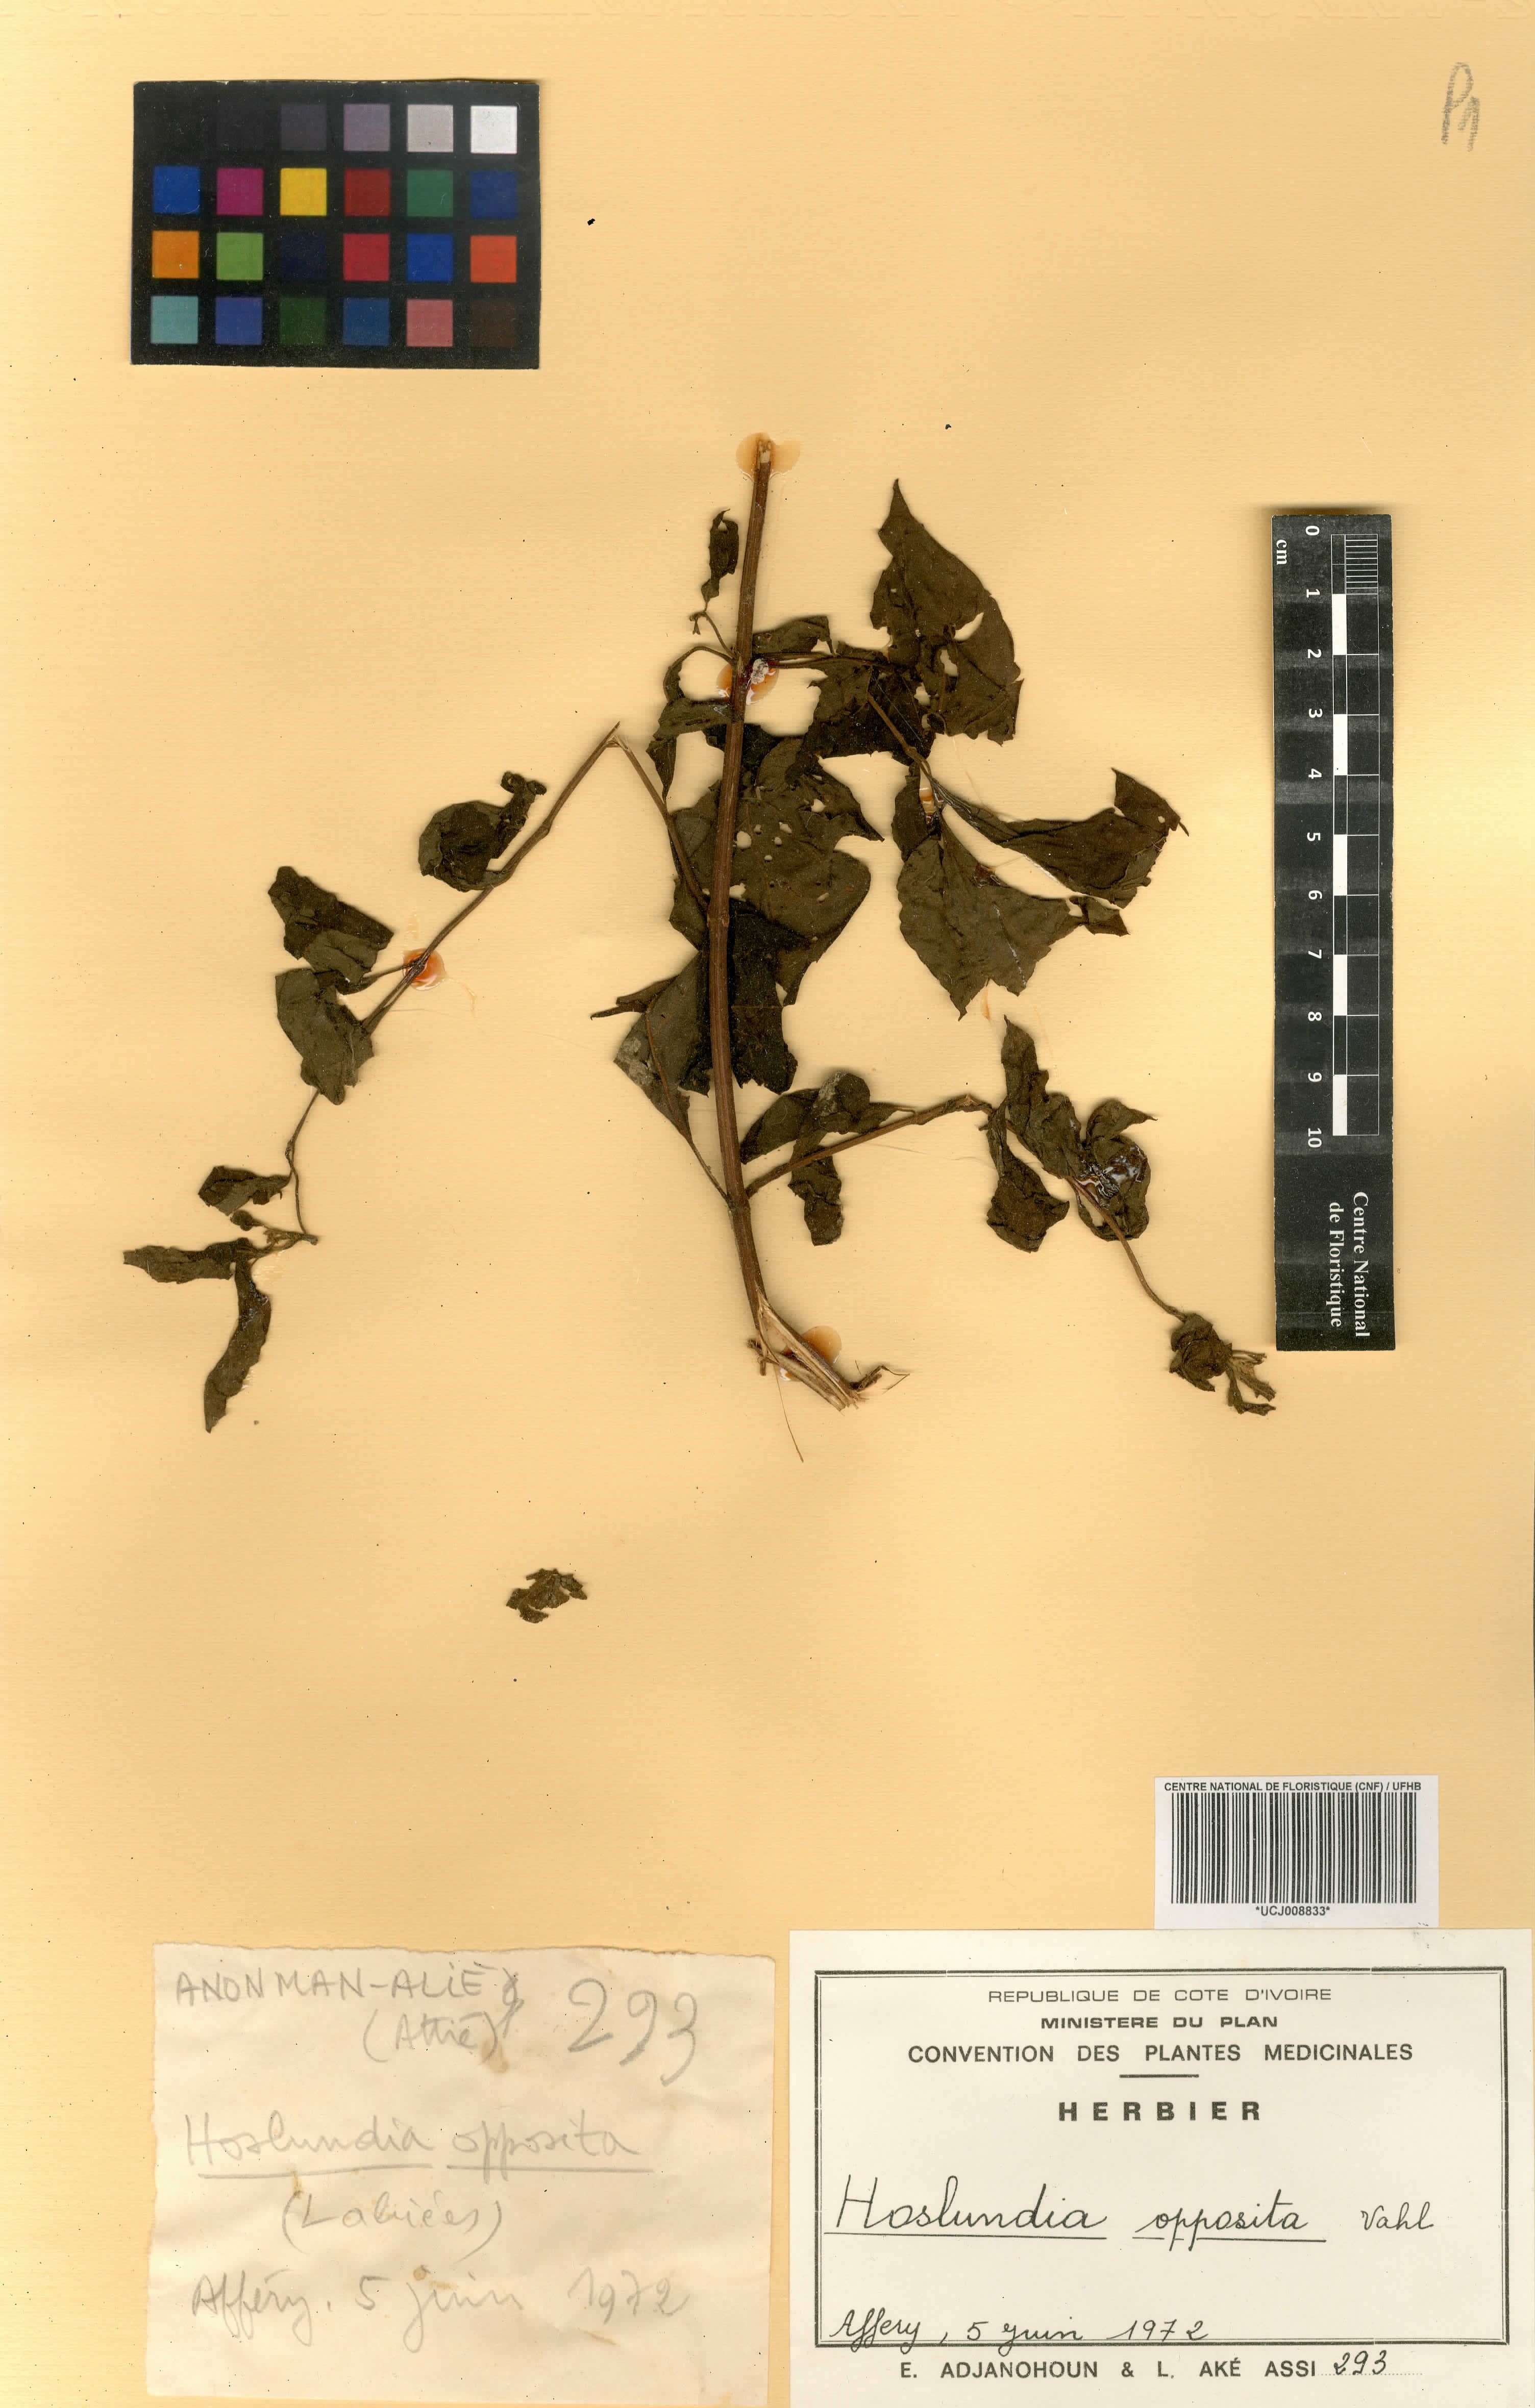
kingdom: Plantae
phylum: Tracheophyta
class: Magnoliopsida
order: Lamiales
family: Lamiaceae
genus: Hoslundia
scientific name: Hoslundia opposita
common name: Kamyuye
